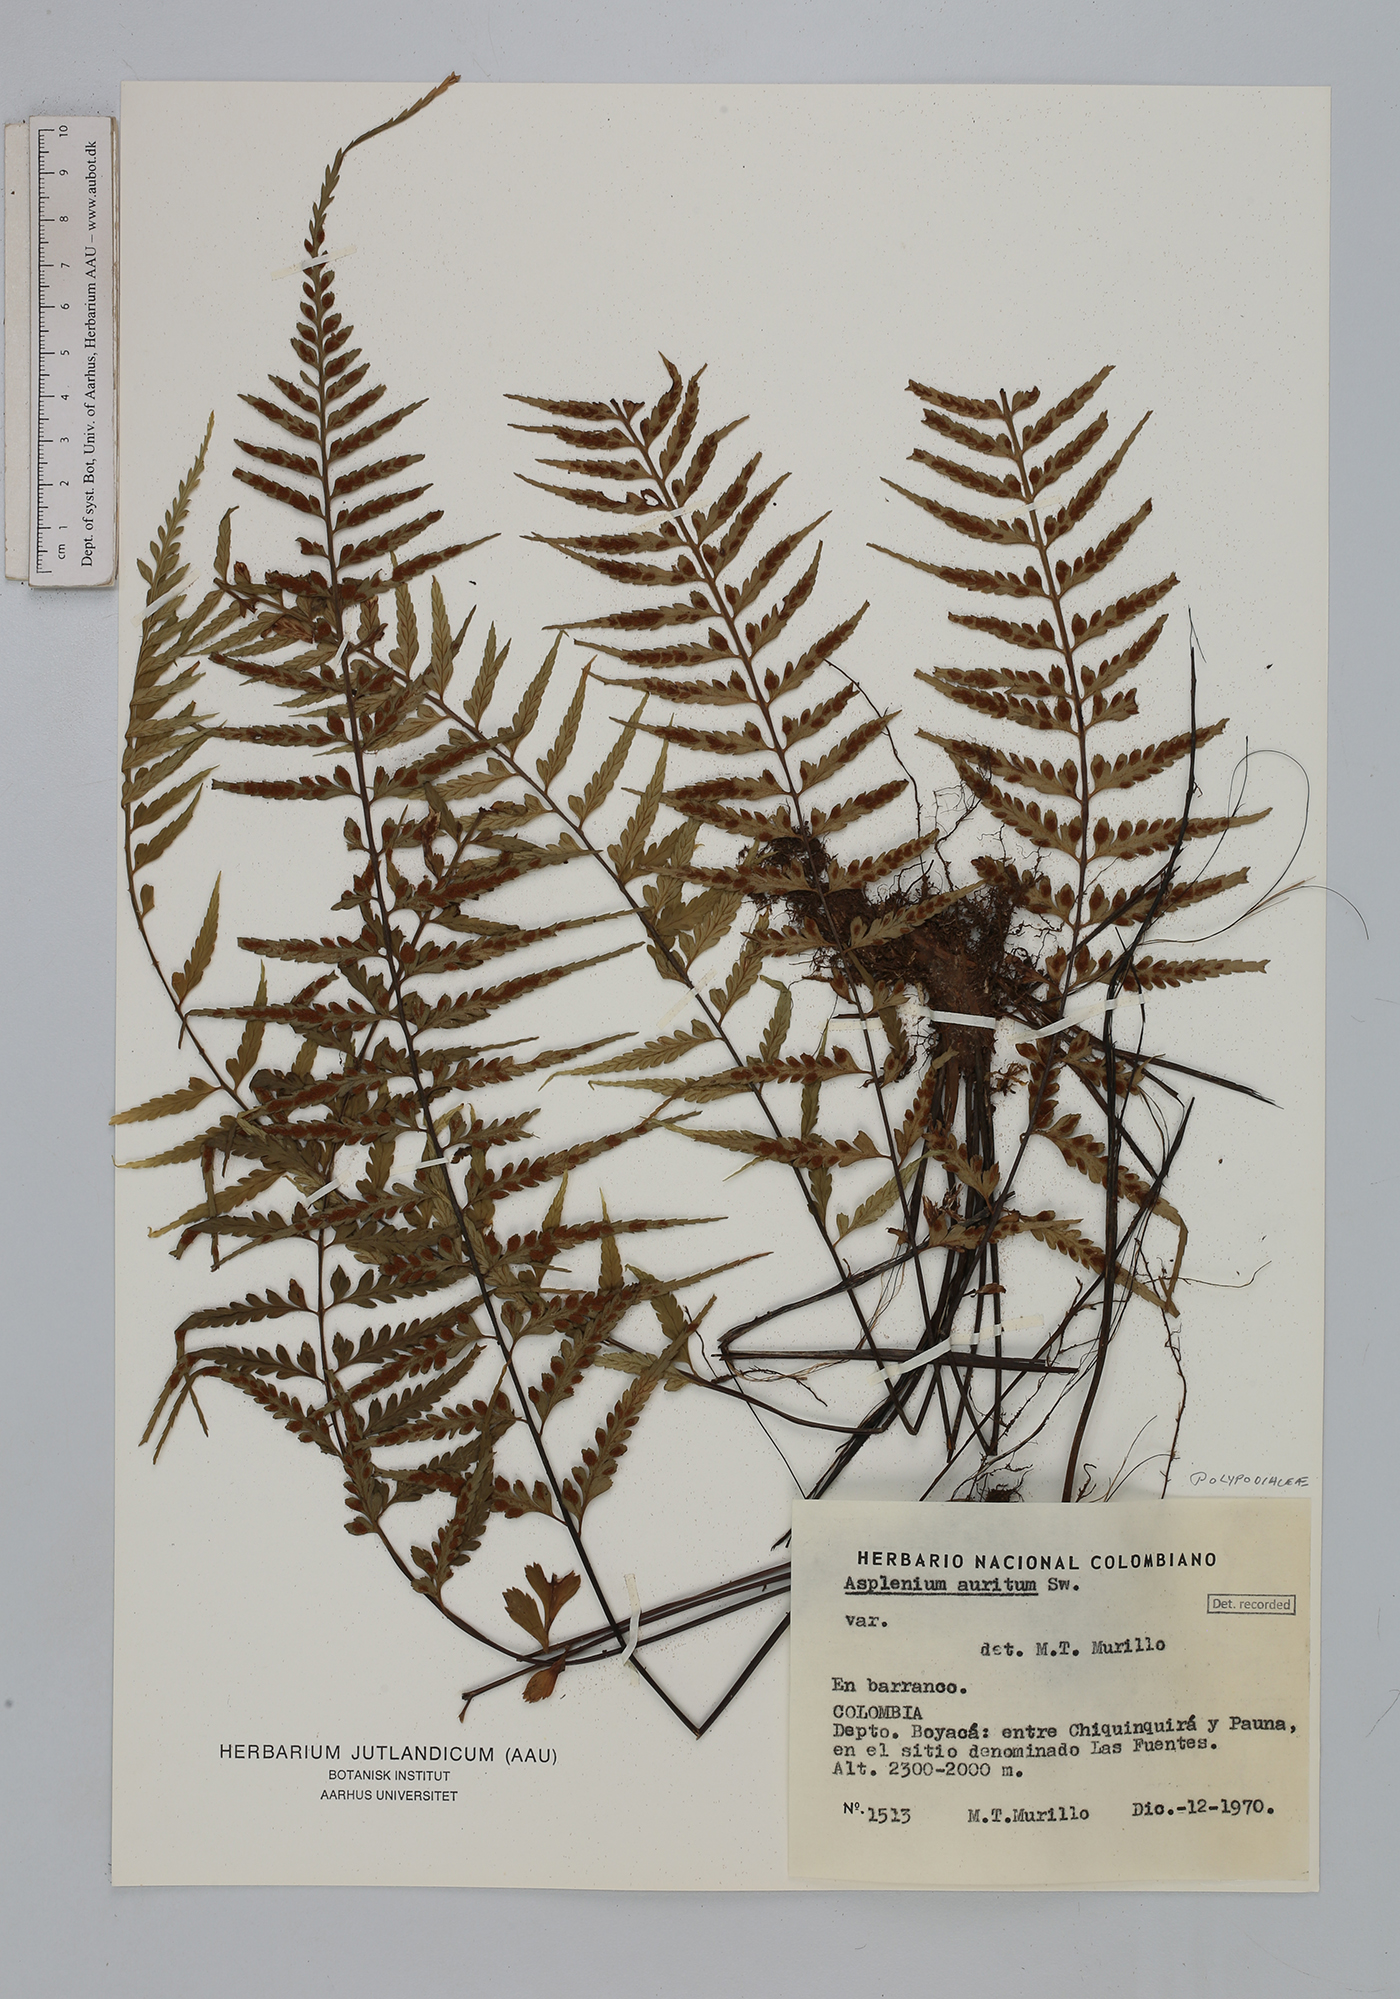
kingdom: Plantae
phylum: Tracheophyta
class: Polypodiopsida
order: Polypodiales
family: Aspleniaceae
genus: Asplenium
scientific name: Asplenium auritum
